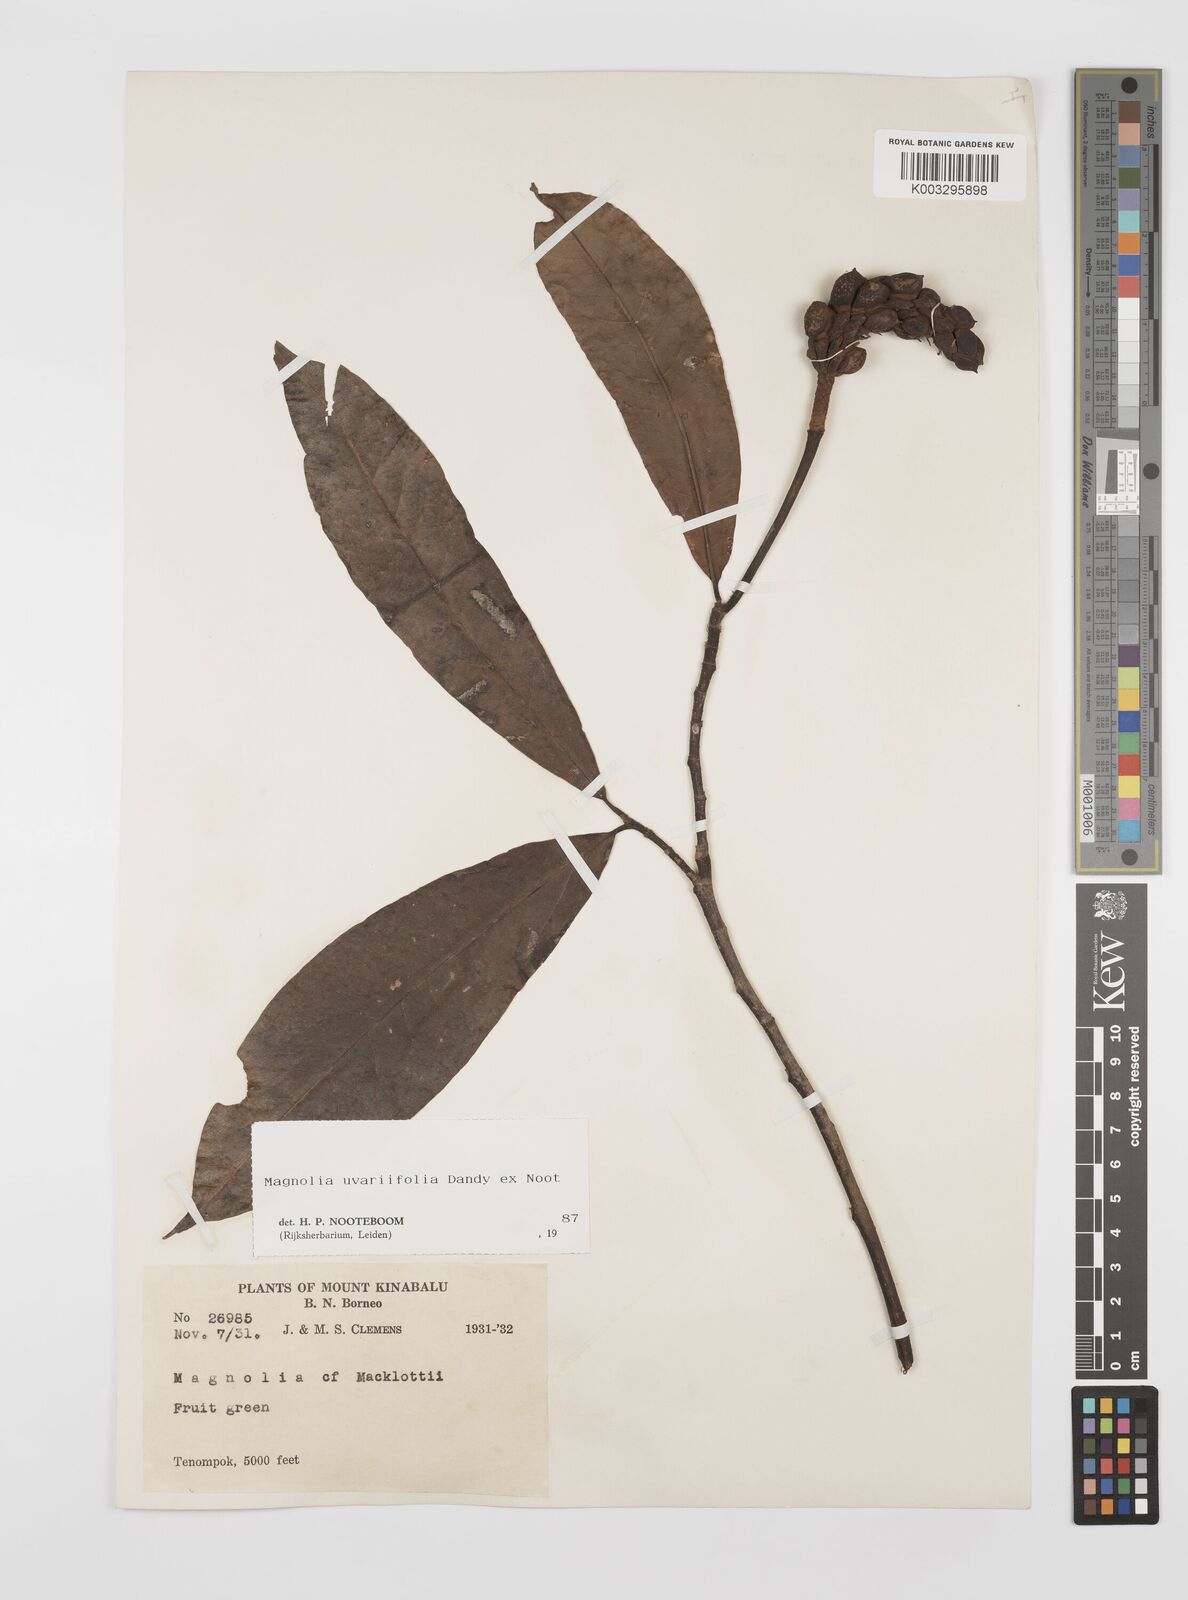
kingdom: Plantae
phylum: Tracheophyta
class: Magnoliopsida
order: Magnoliales
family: Magnoliaceae
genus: Magnolia
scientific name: Magnolia macklottii
